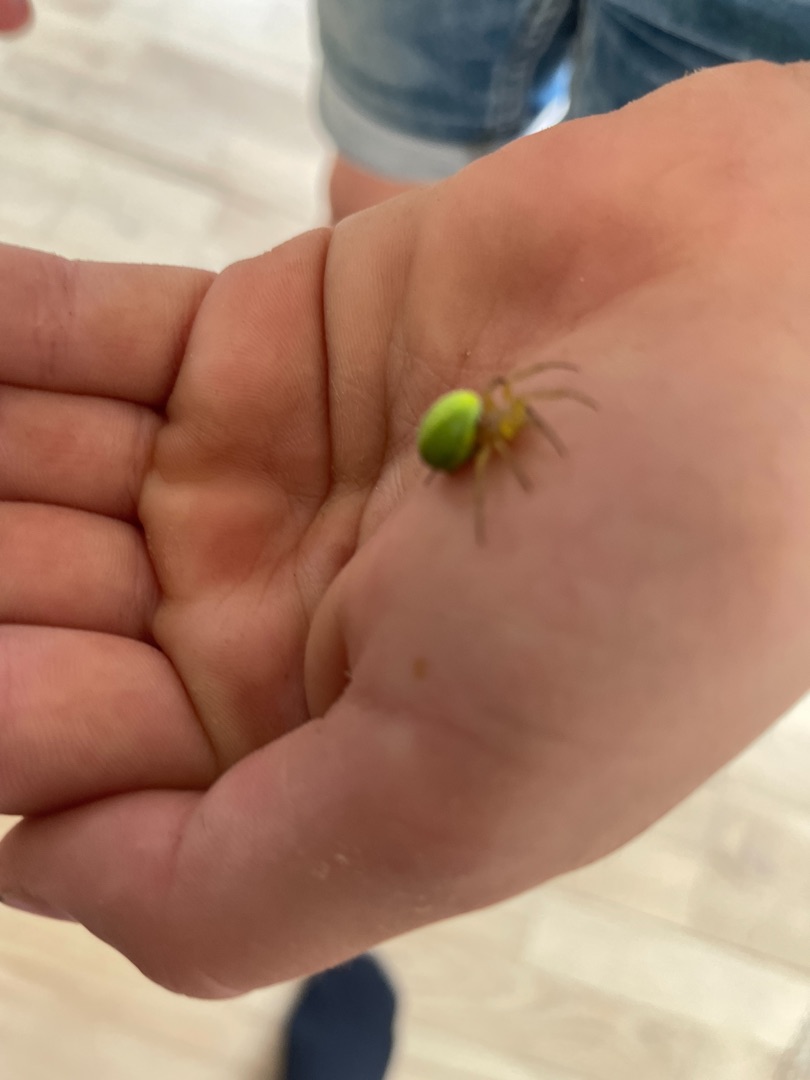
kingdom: Animalia
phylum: Arthropoda
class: Arachnida
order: Araneae
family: Araneidae
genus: Araniella
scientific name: Araniella
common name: Agurkeedderkopslægten
